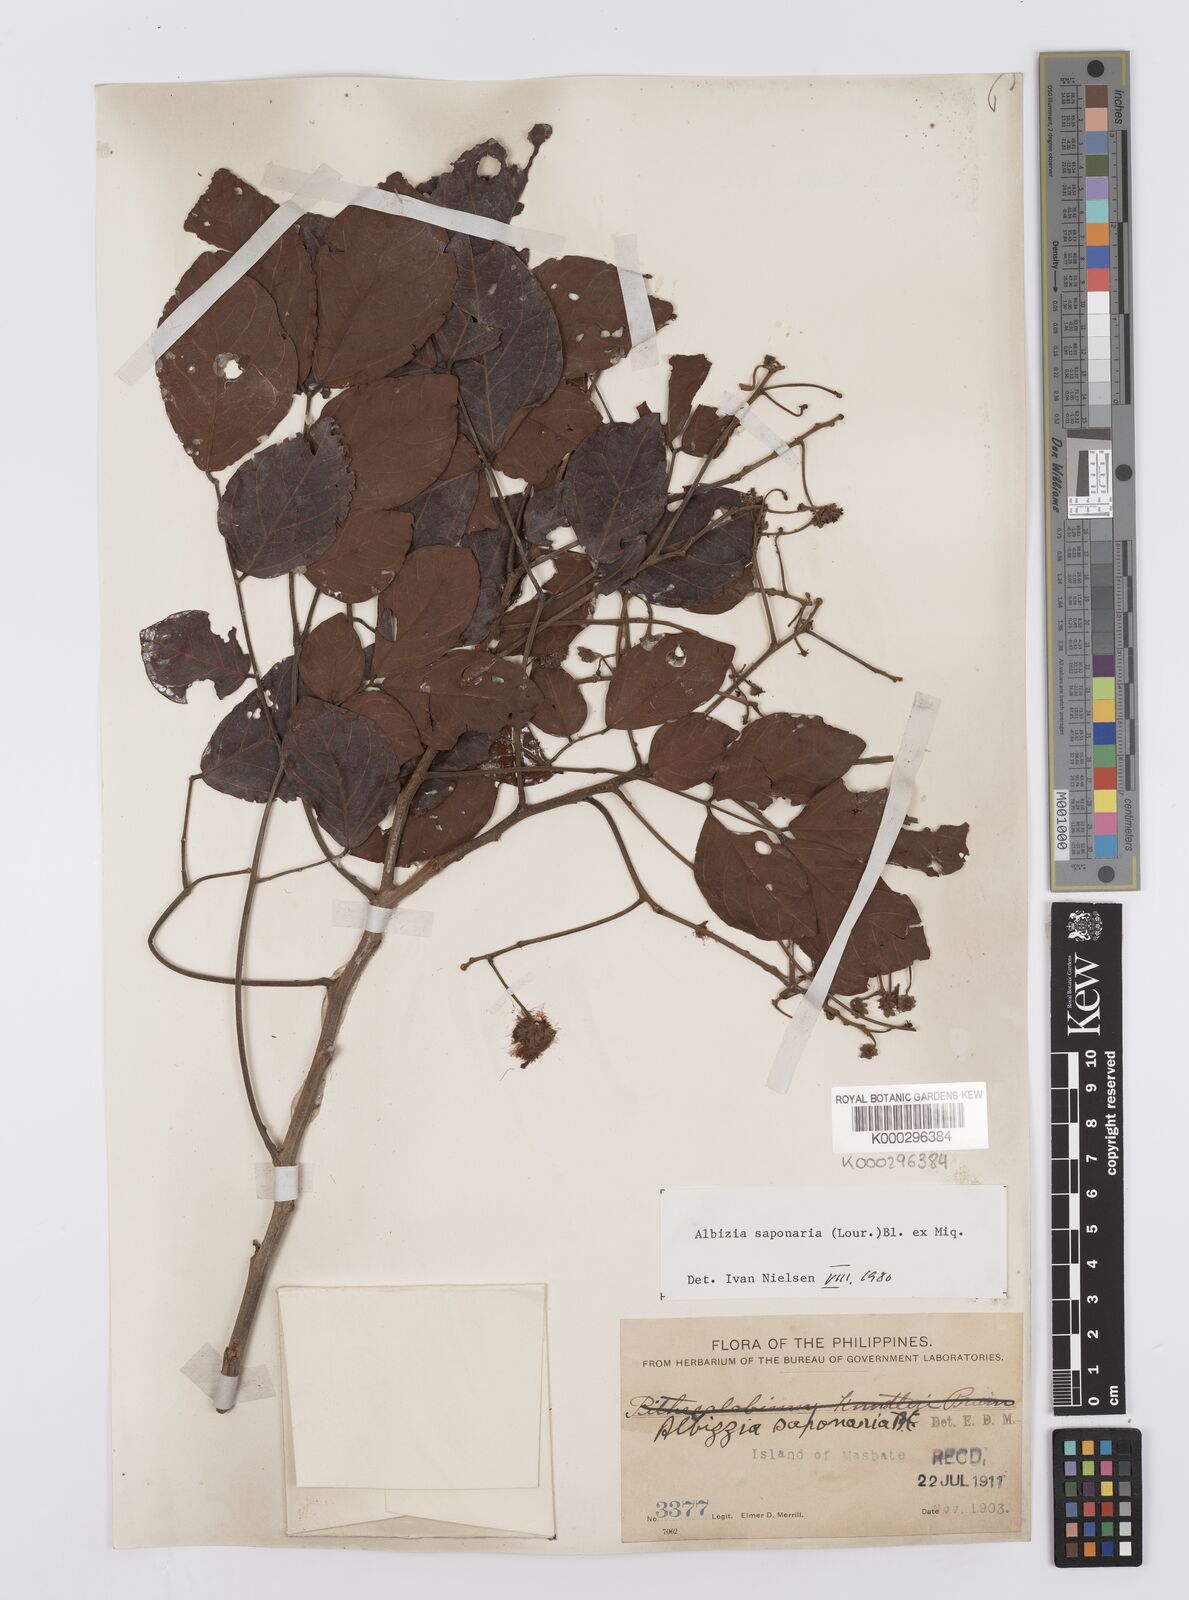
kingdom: Plantae
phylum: Tracheophyta
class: Magnoliopsida
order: Fabales
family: Fabaceae
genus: Albizia
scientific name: Albizia saponaria
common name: Whiteflower albizia
